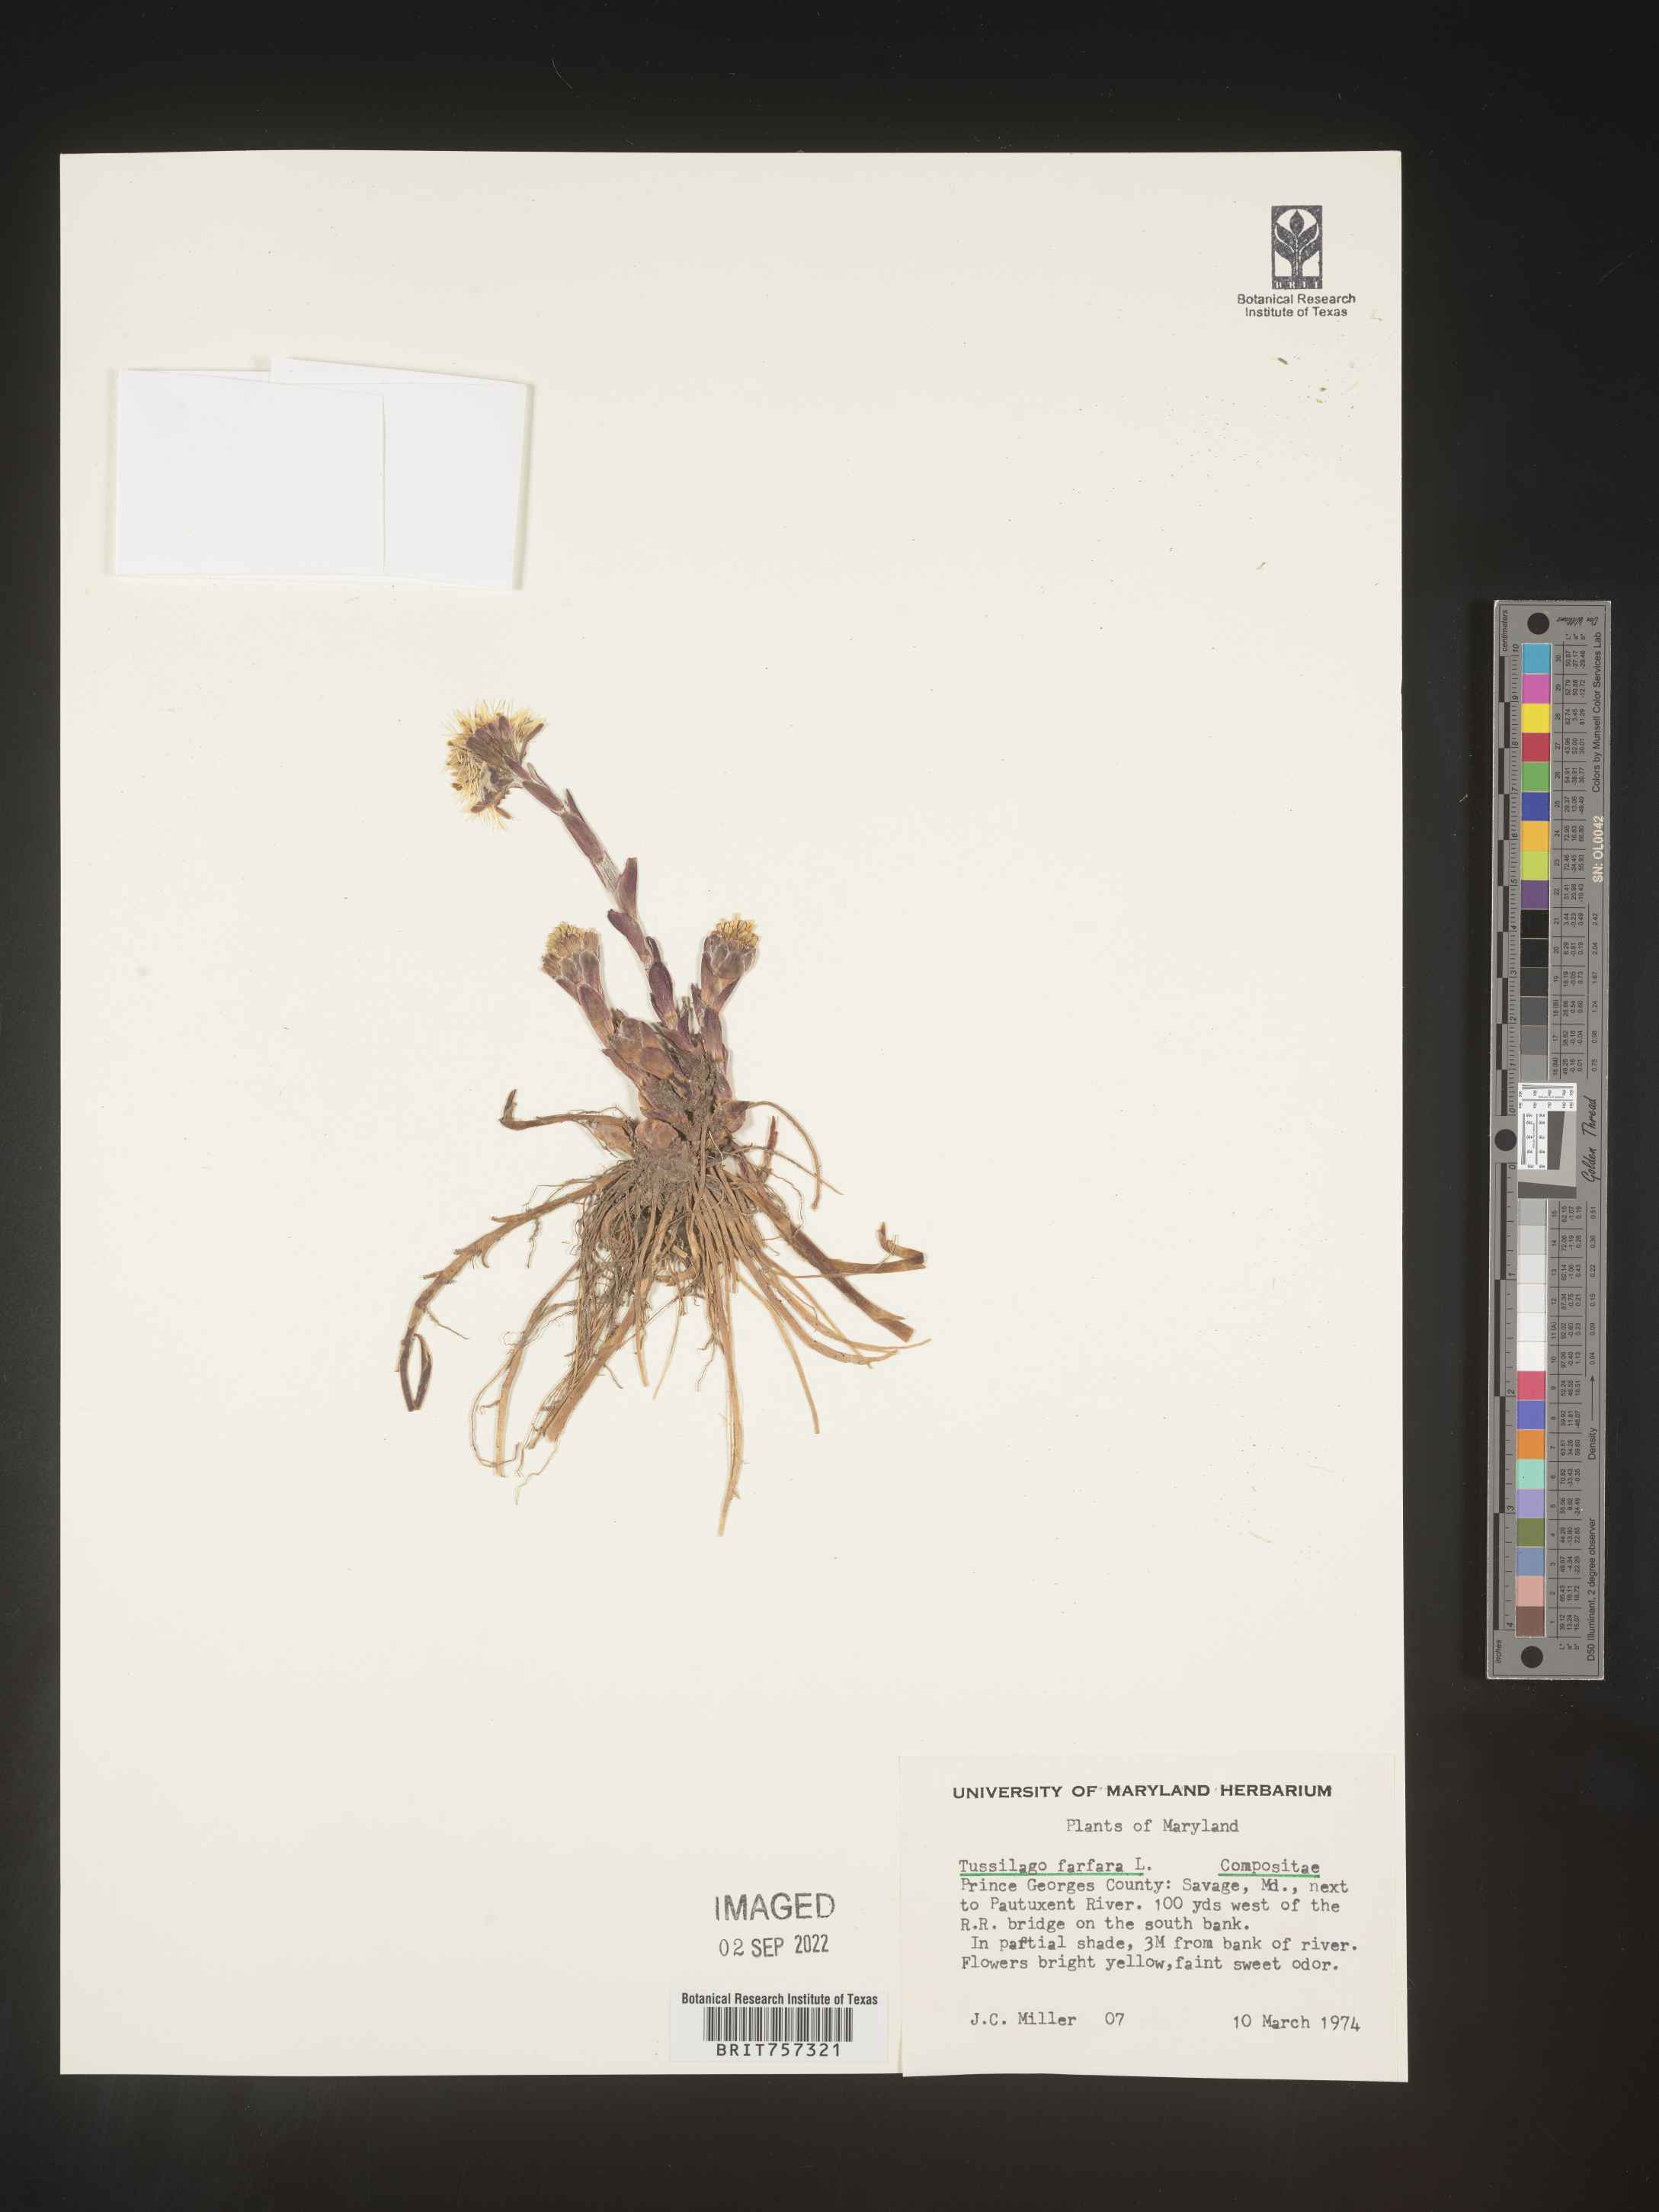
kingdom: Plantae
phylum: Tracheophyta
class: Magnoliopsida
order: Asterales
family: Asteraceae
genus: Tussilago
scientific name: Tussilago
